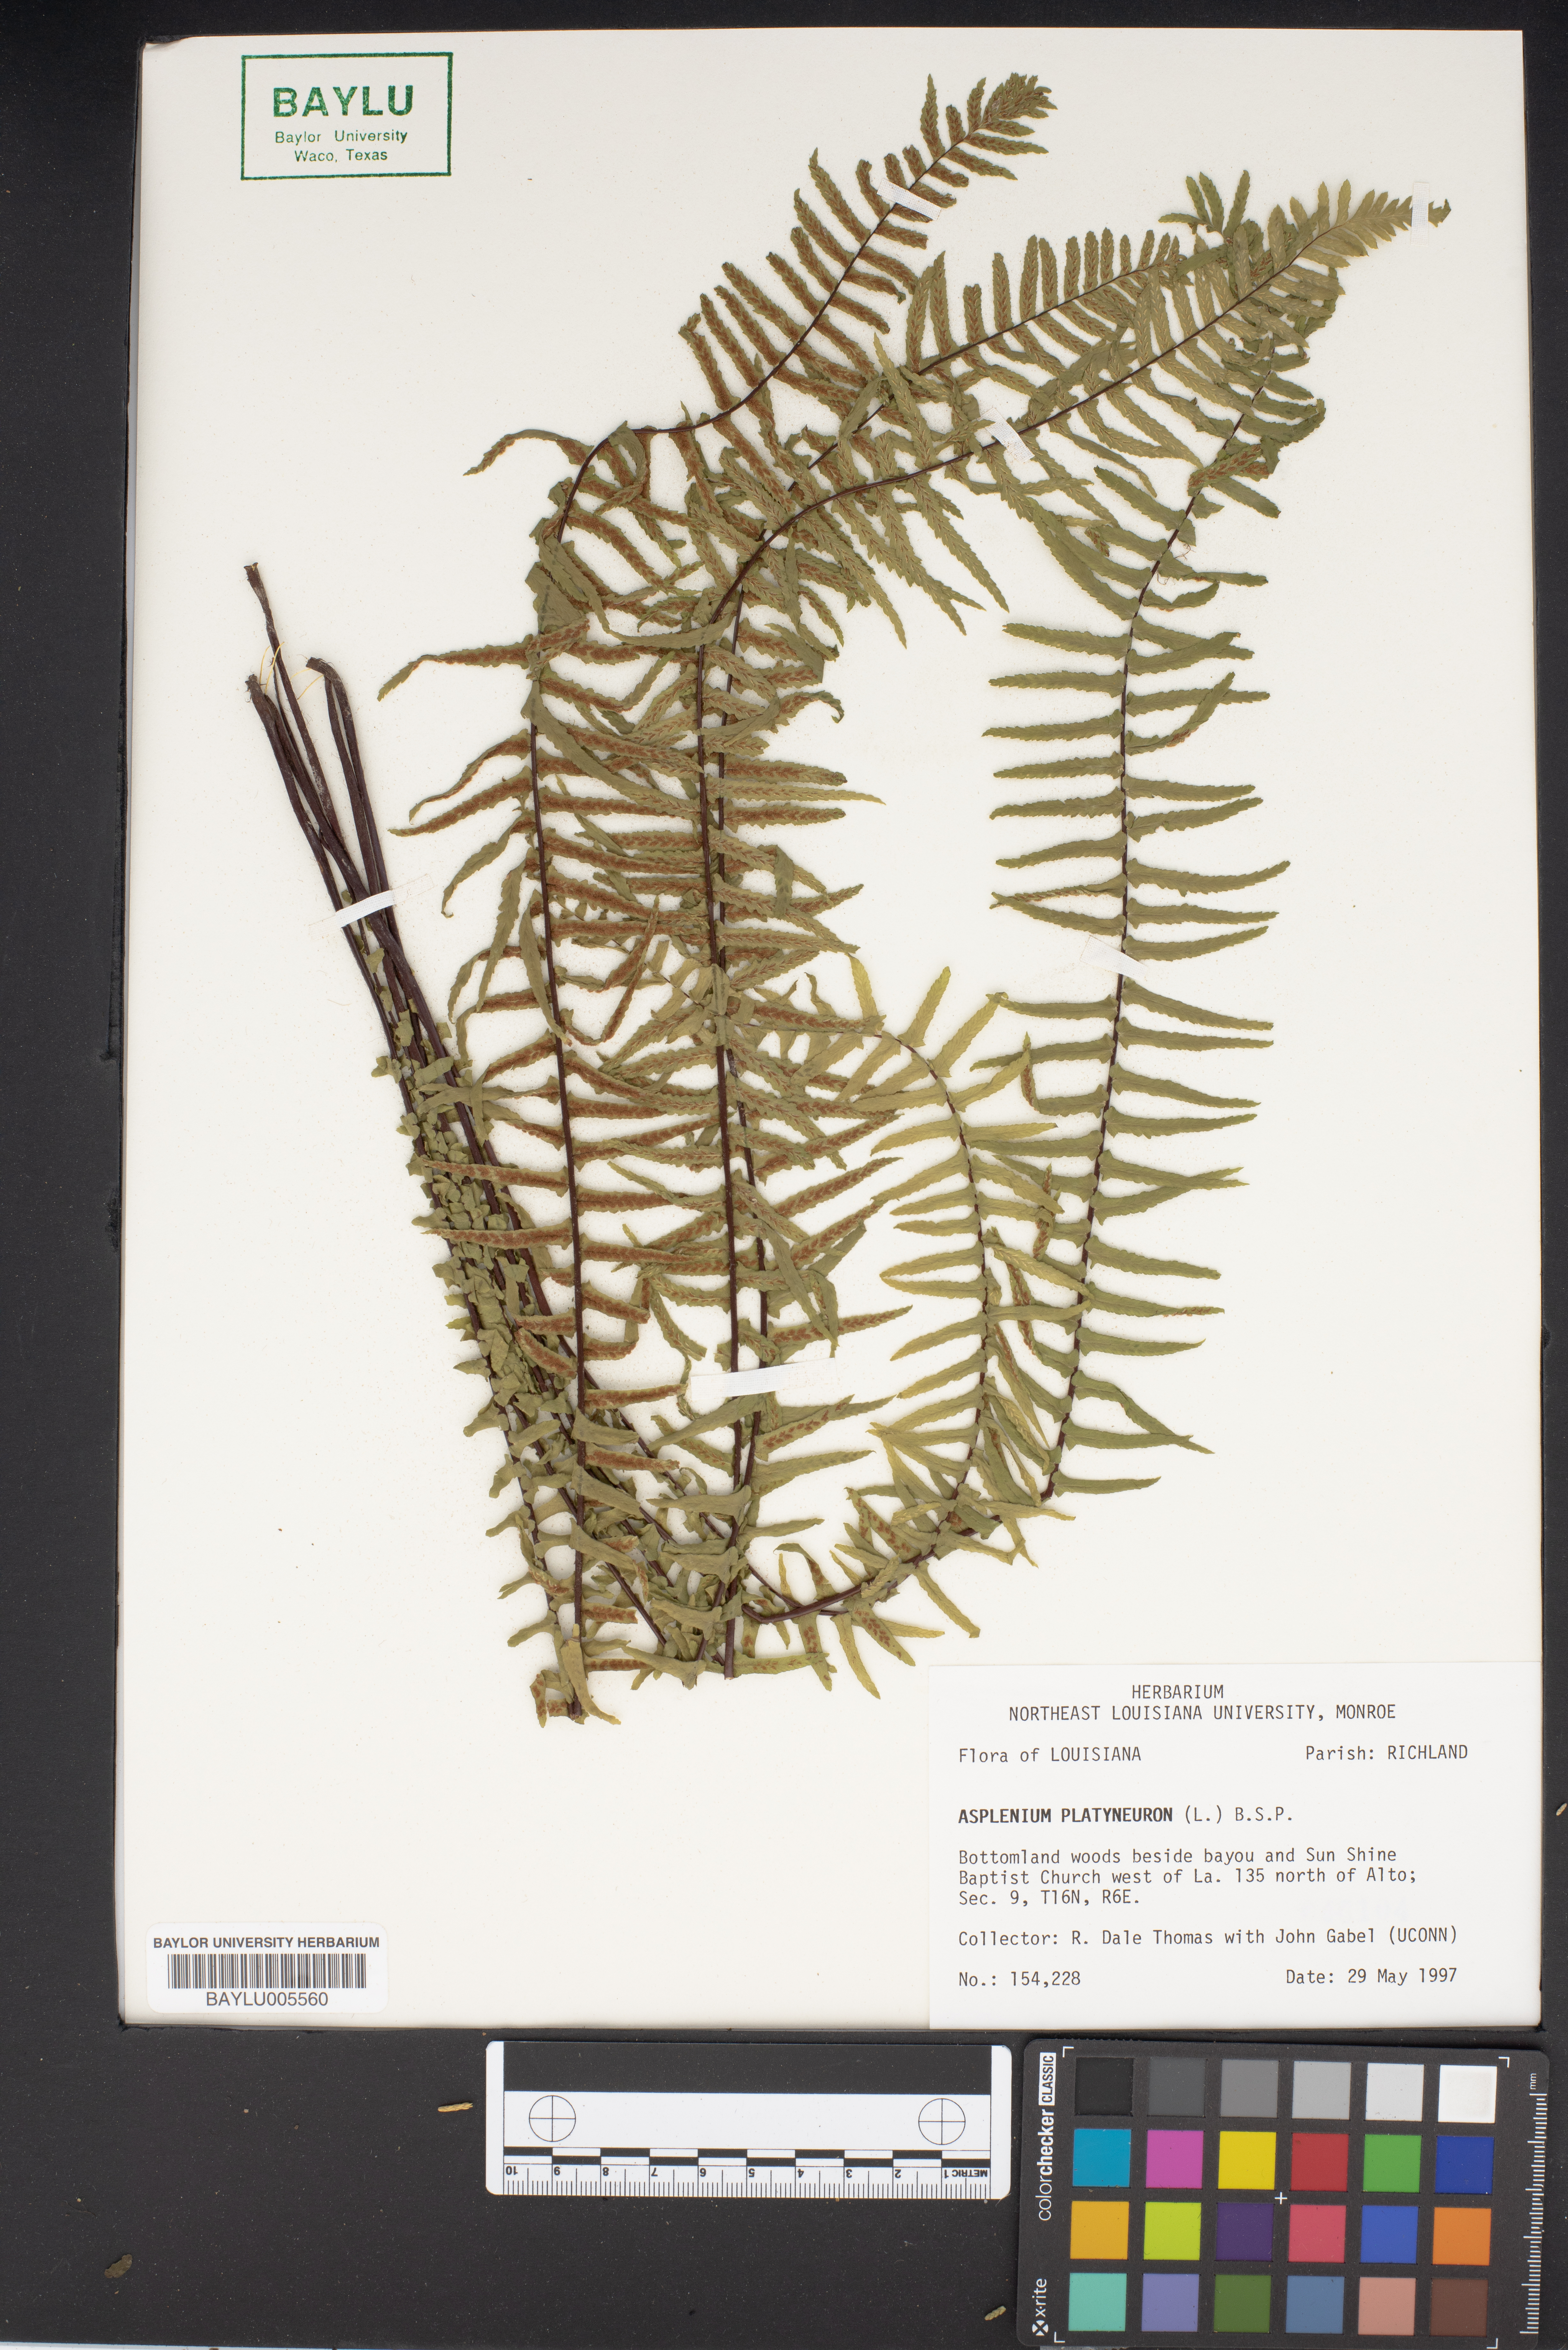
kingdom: Plantae
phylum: Tracheophyta
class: Polypodiopsida
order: Polypodiales
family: Aspleniaceae
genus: Asplenium
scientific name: Asplenium platyneuron
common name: Ebony spleenwort
